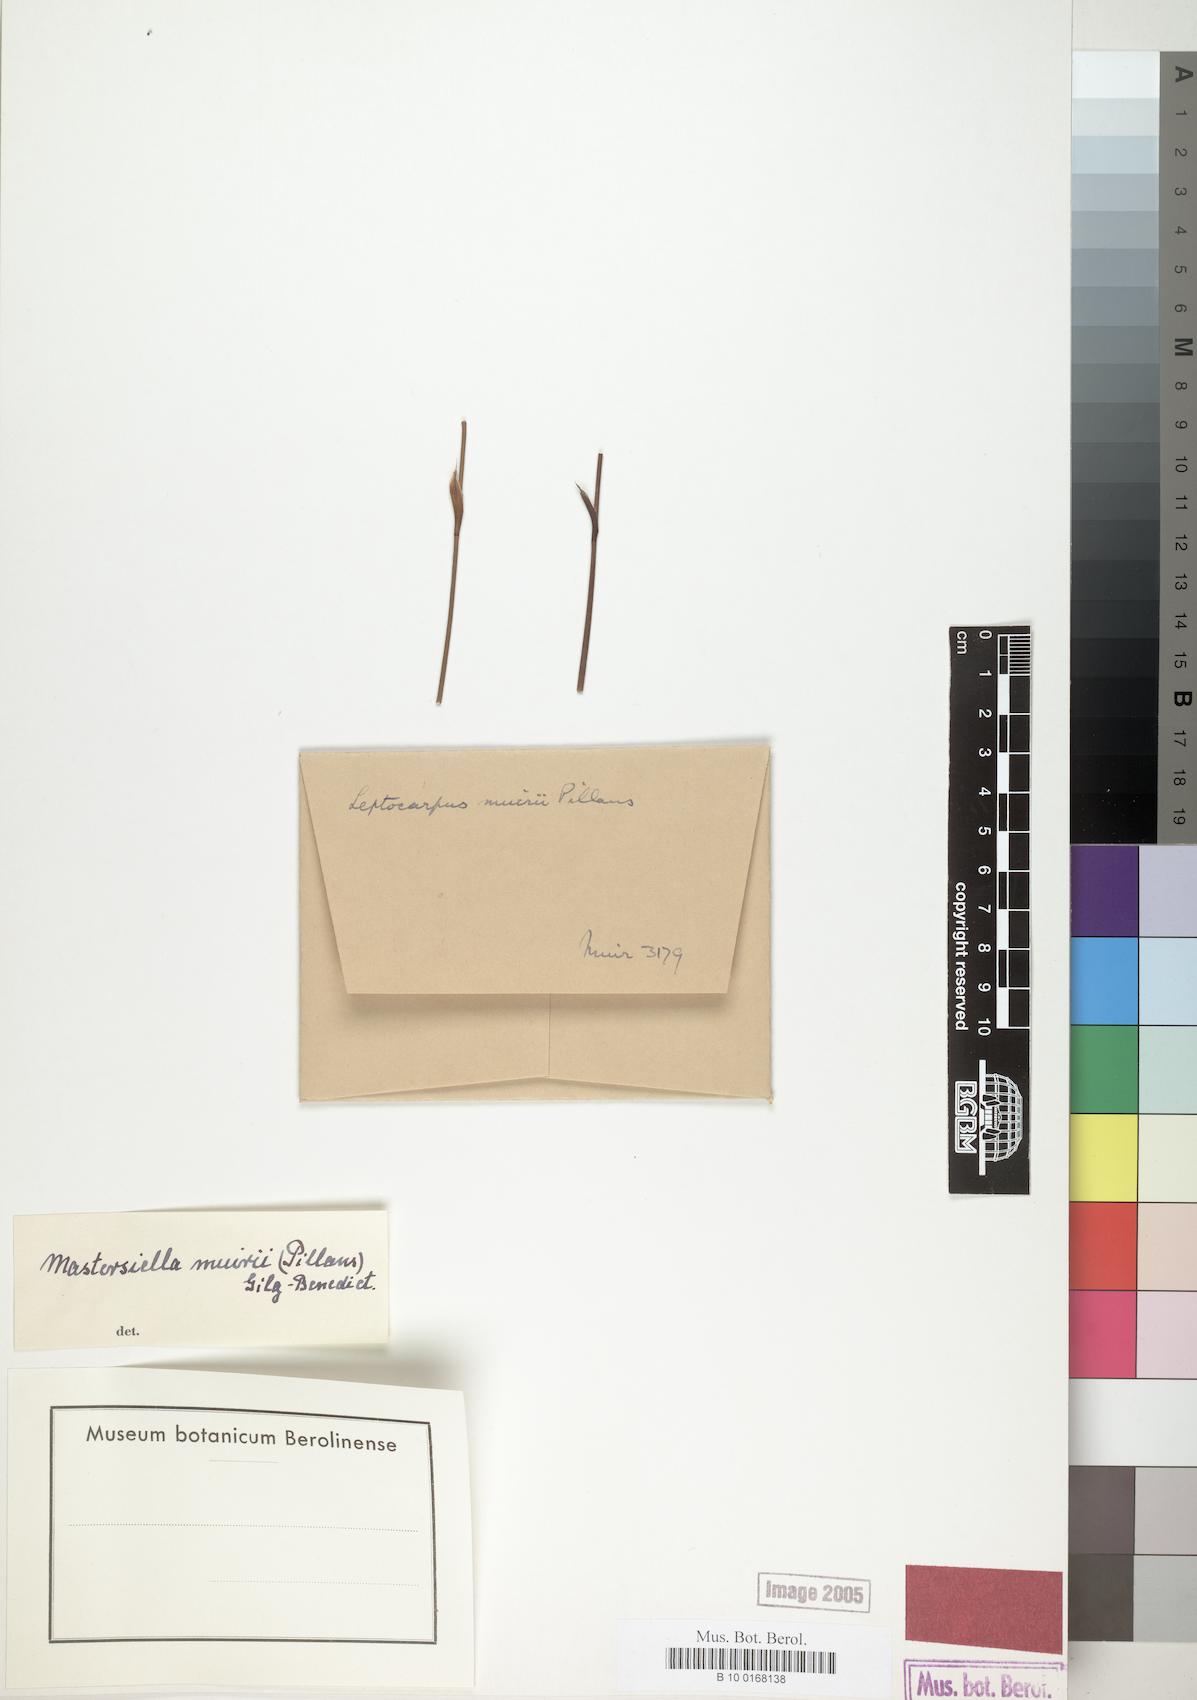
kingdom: Plantae
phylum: Tracheophyta
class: Liliopsida
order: Poales
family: Restionaceae
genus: Mastersiella
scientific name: Mastersiella
